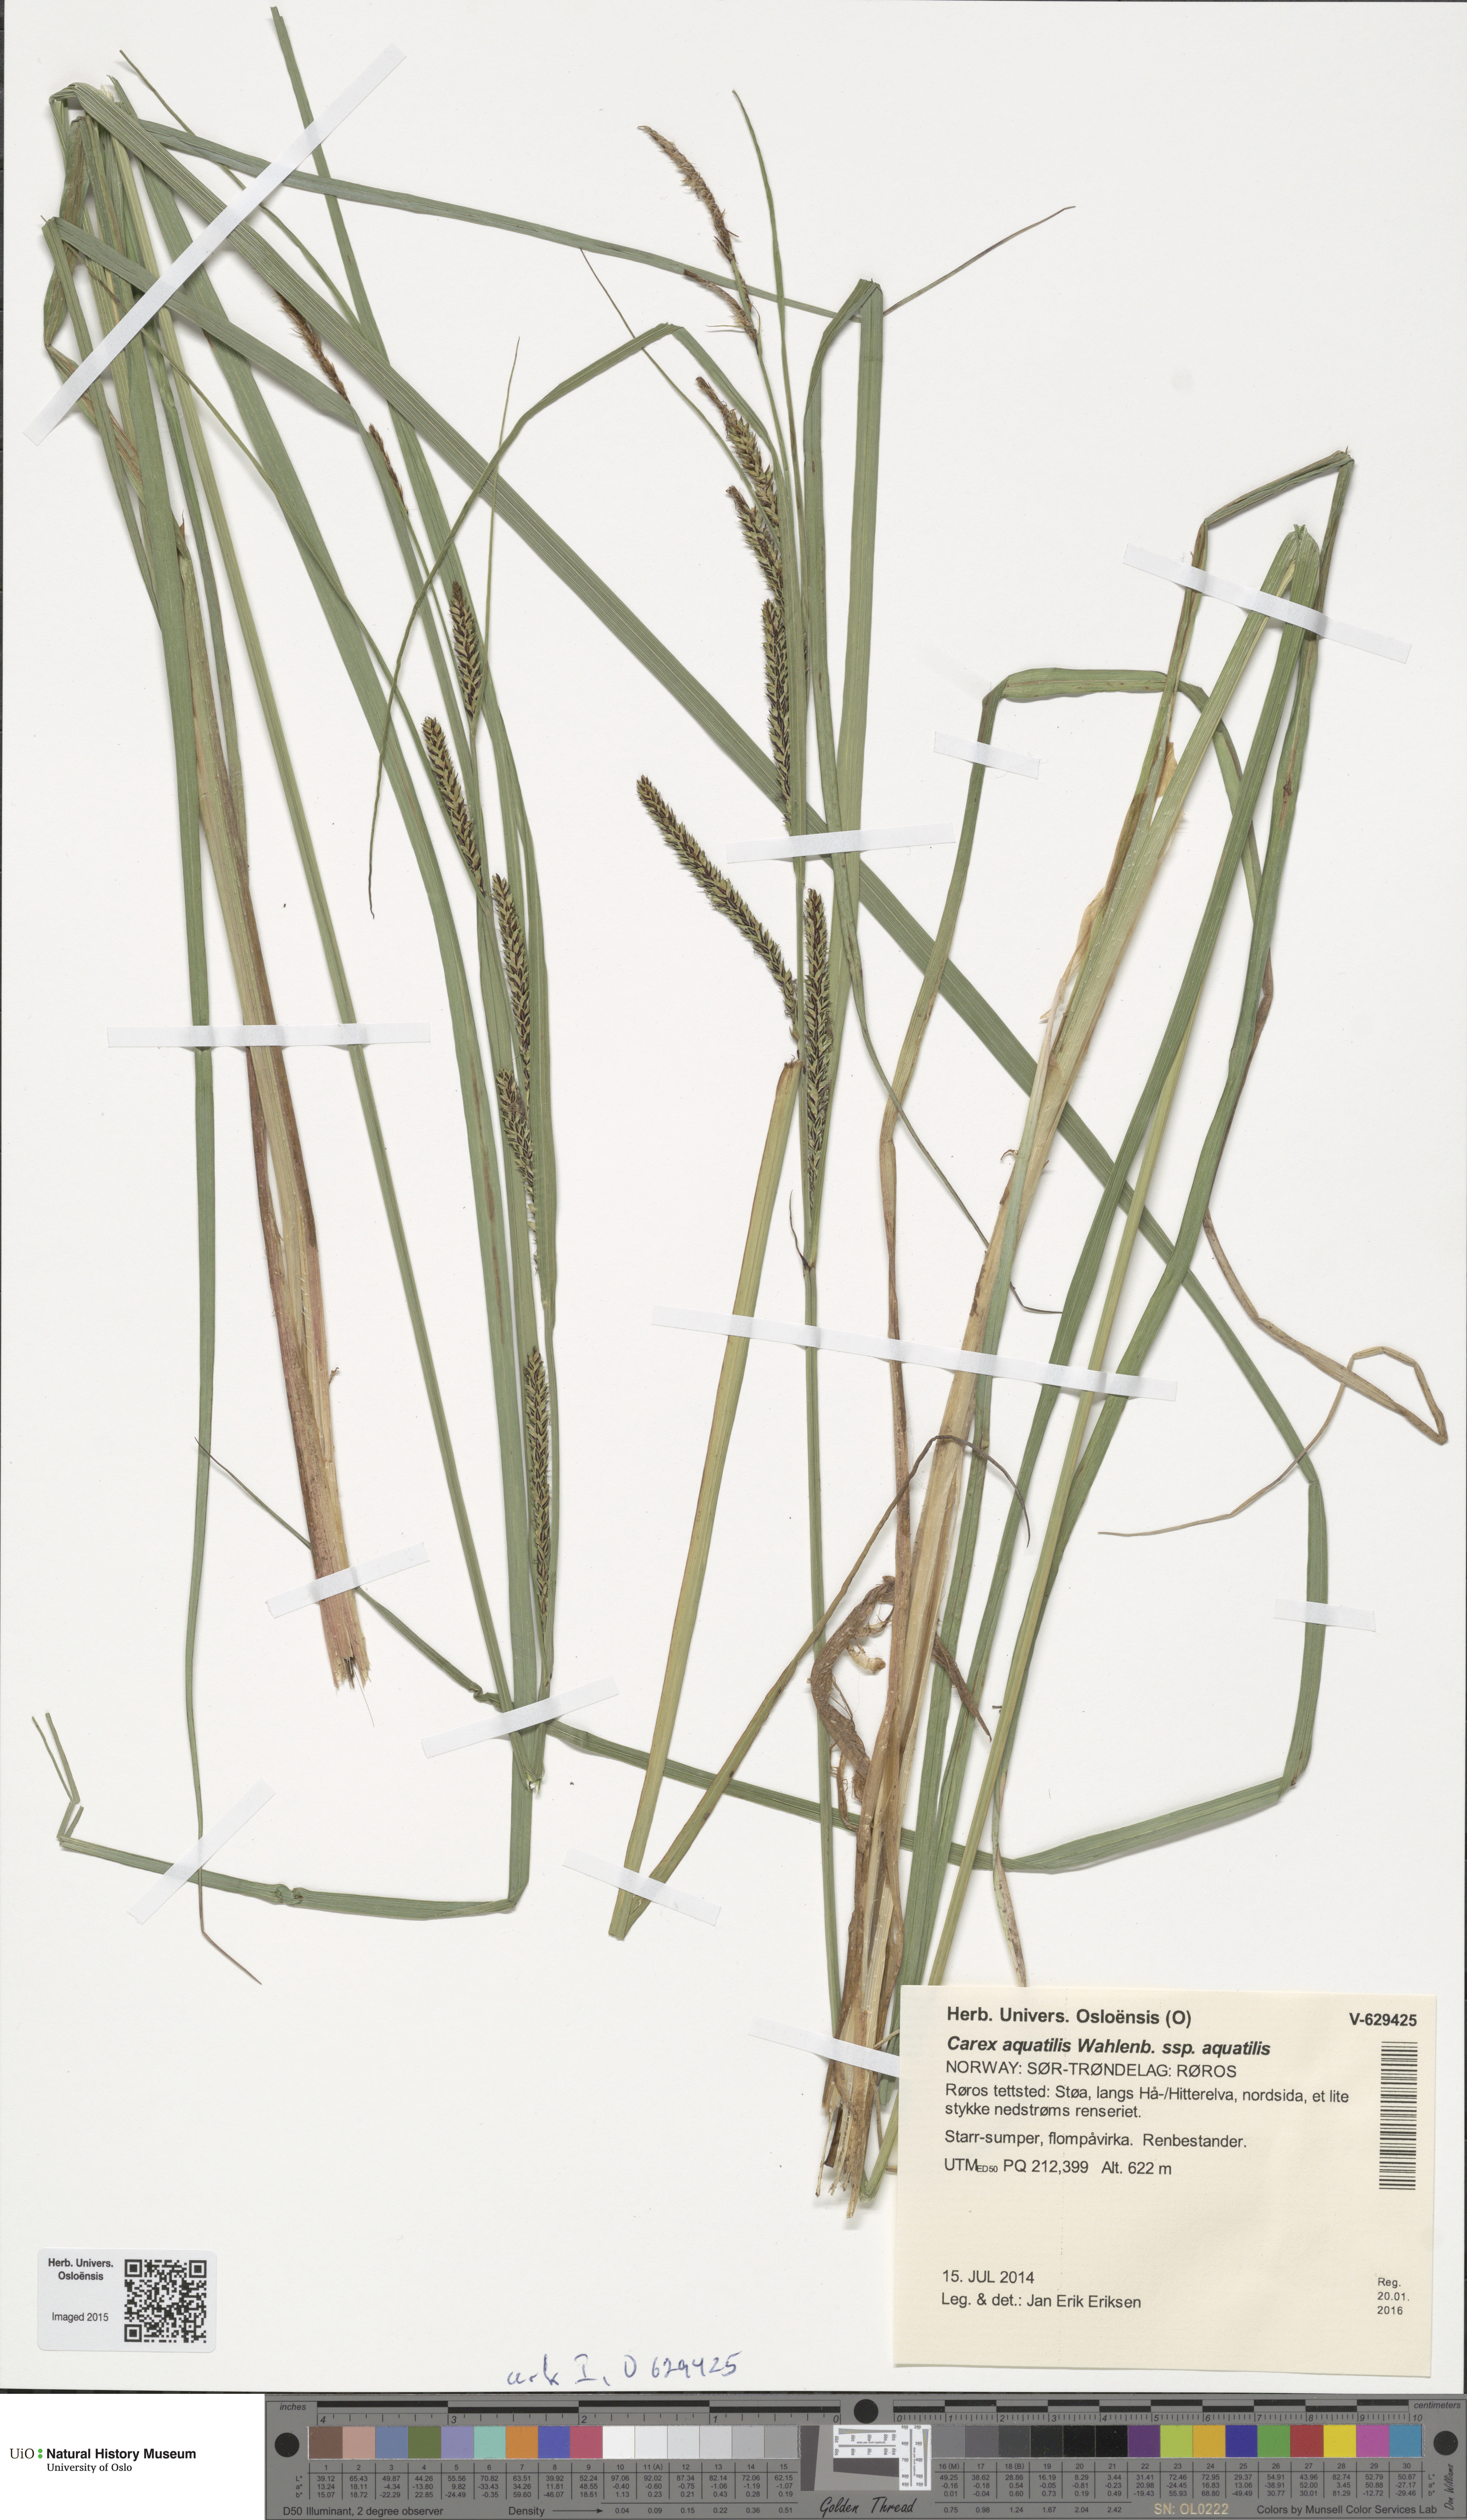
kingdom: Plantae
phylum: Tracheophyta
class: Liliopsida
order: Poales
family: Cyperaceae
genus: Carex
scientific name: Carex aquatilis
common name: Water sedge
